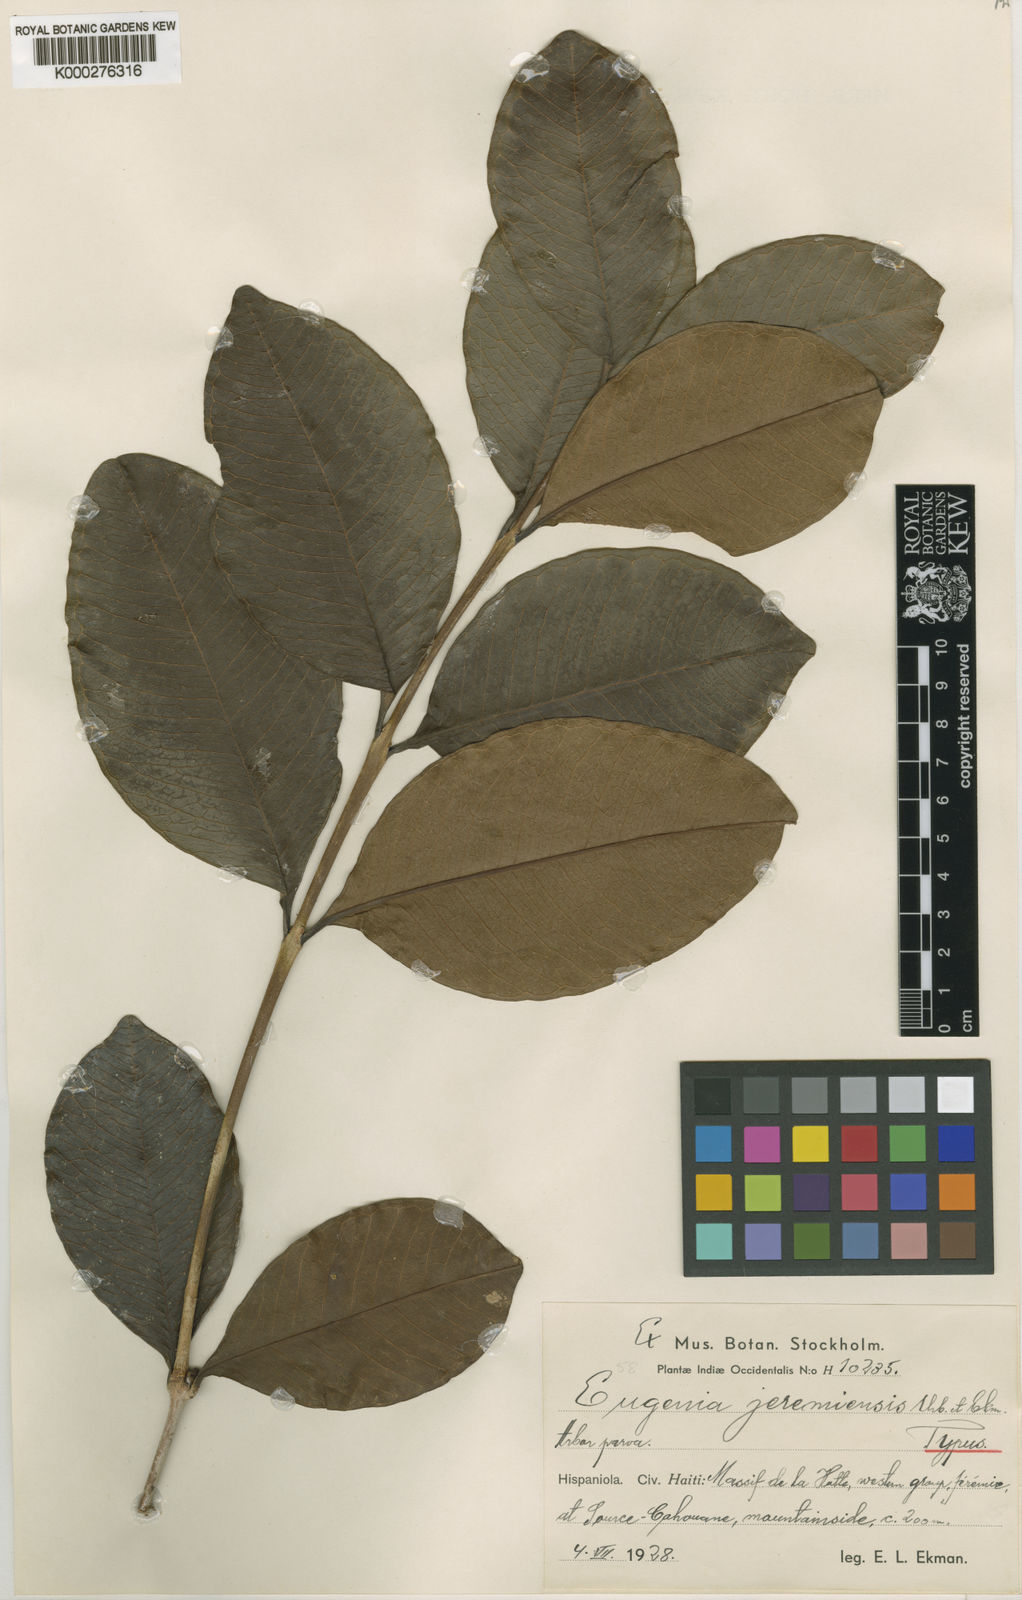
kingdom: Plantae
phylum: Tracheophyta
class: Magnoliopsida
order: Myrtales
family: Myrtaceae
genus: Eugenia
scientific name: Eugenia jeremiensis
